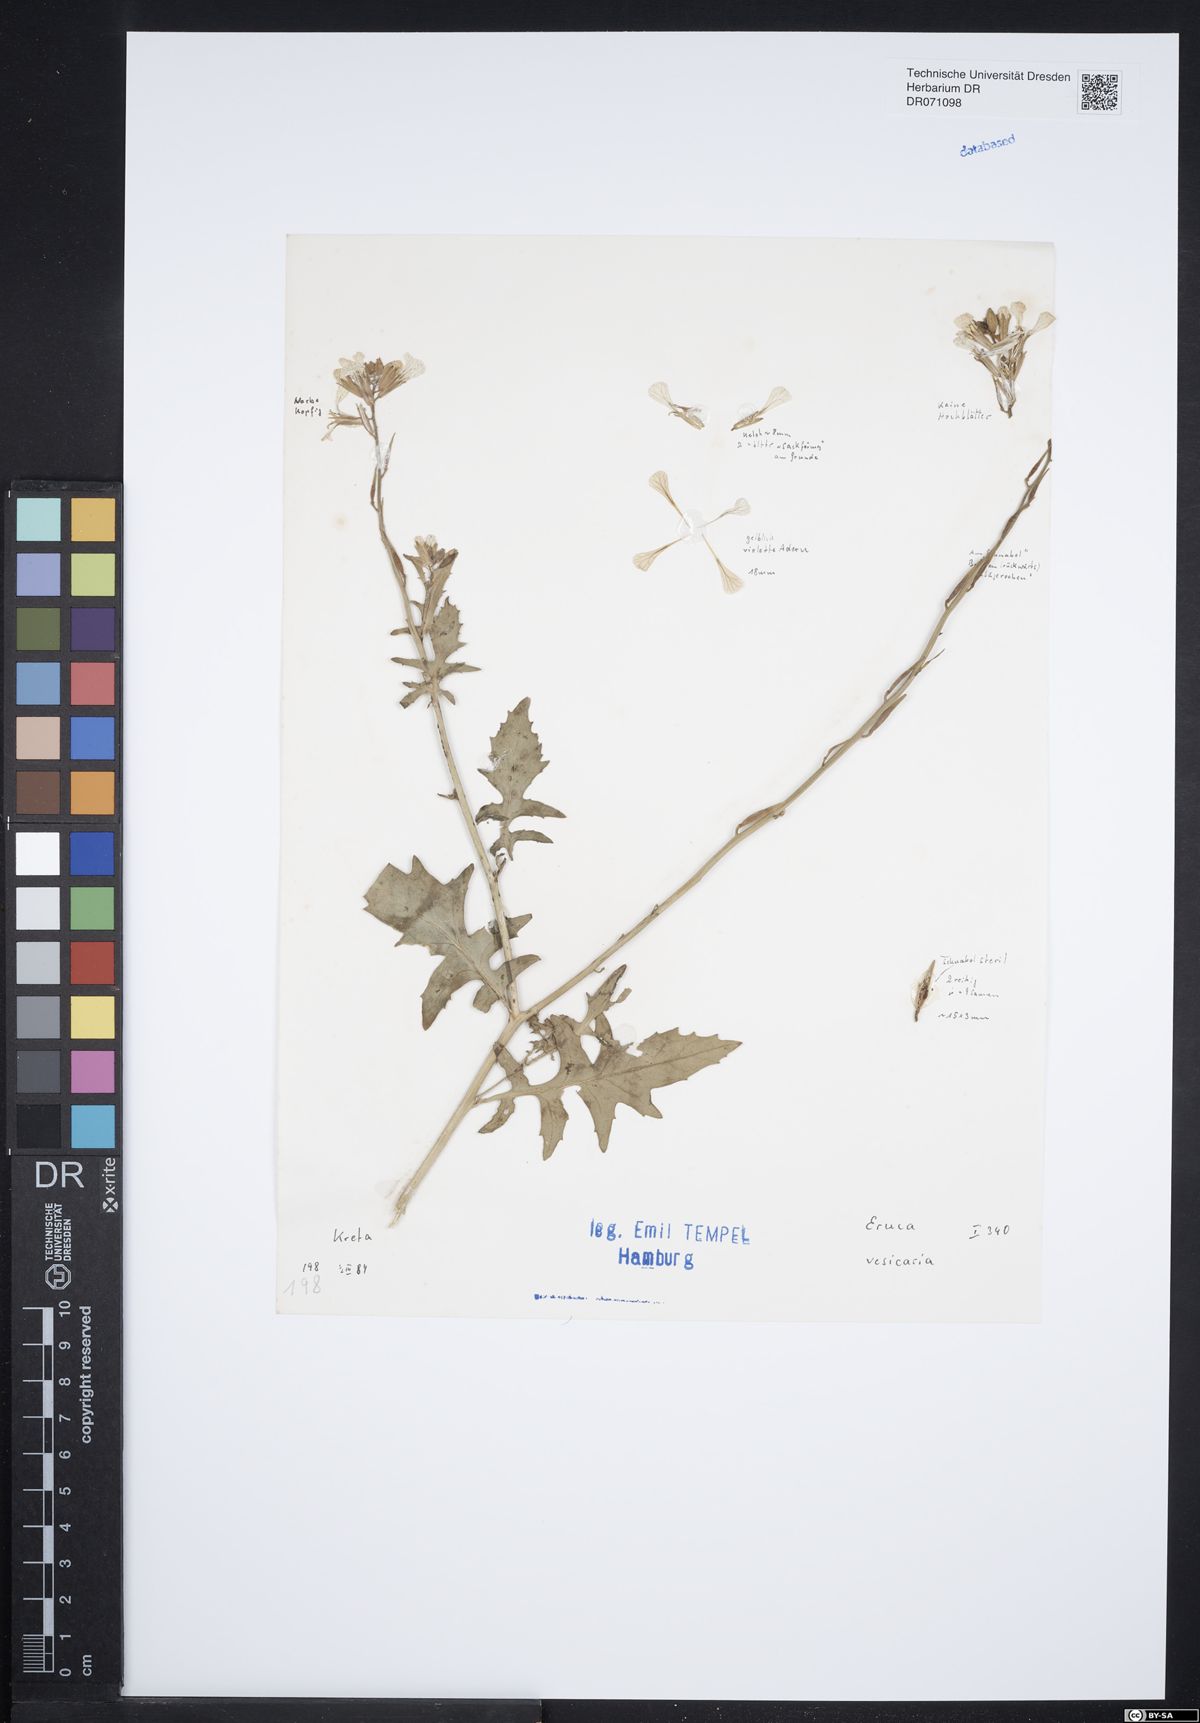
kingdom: Plantae
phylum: Tracheophyta
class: Magnoliopsida
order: Brassicales
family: Brassicaceae
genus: Eruca
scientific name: Eruca vesicaria
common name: Garden rocket
